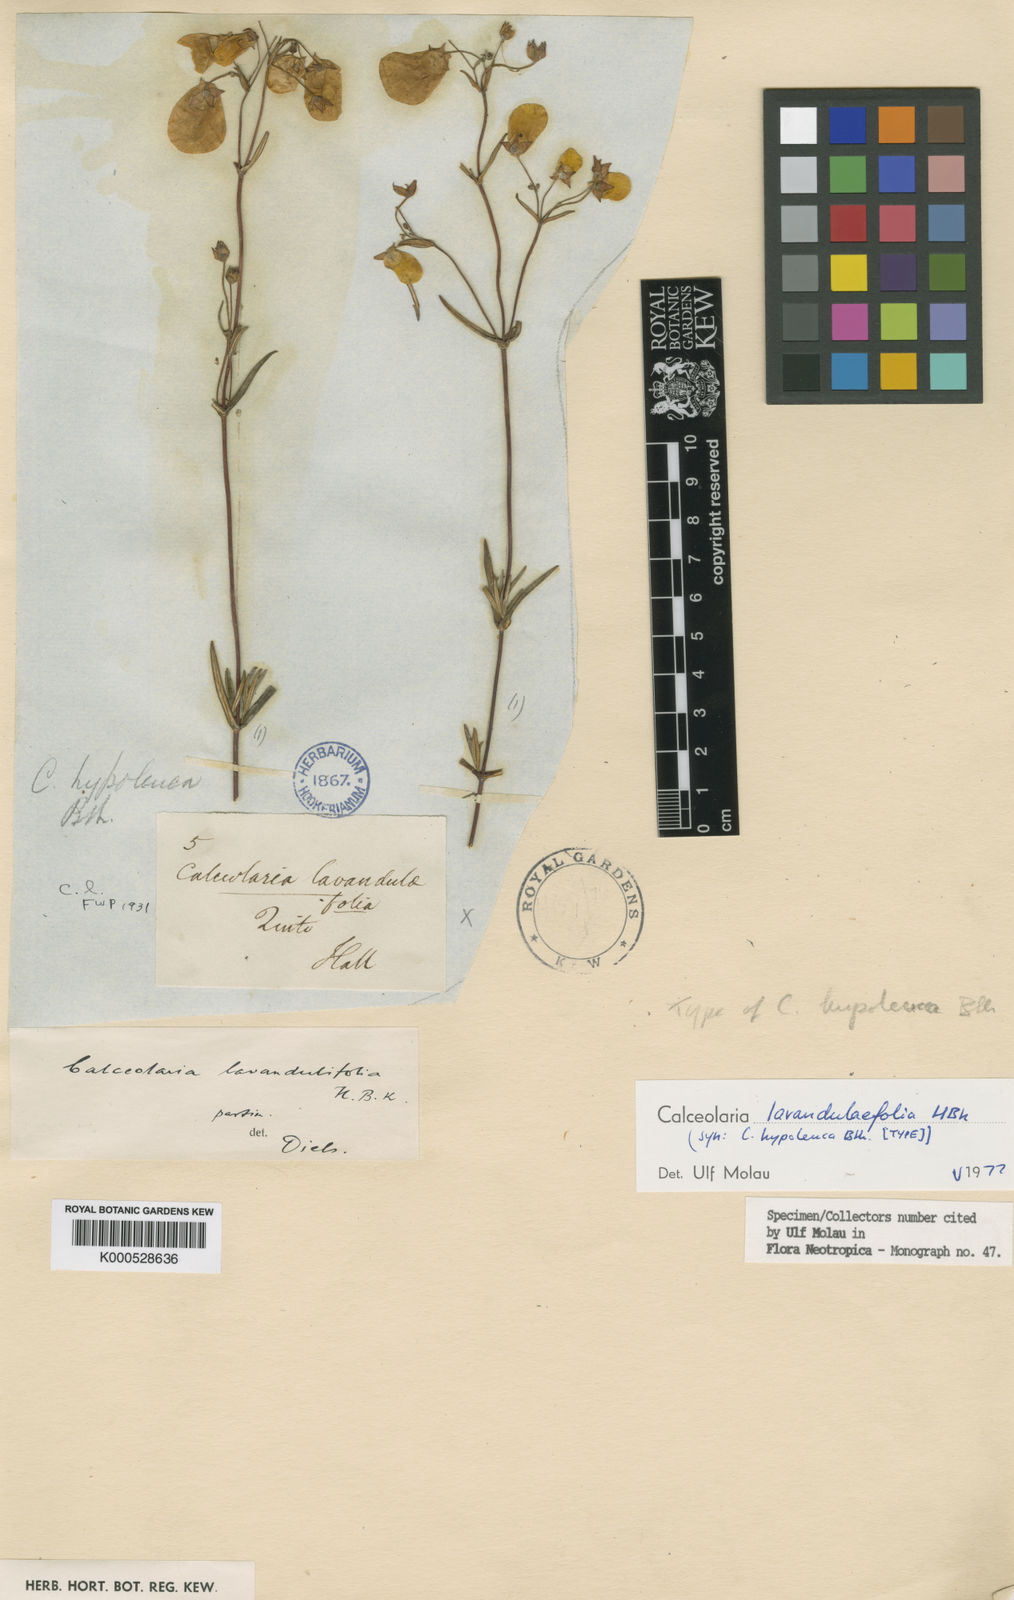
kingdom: Plantae
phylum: Tracheophyta
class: Magnoliopsida
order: Lamiales
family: Calceolariaceae
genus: Calceolaria
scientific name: Calceolaria lavandulifolia
